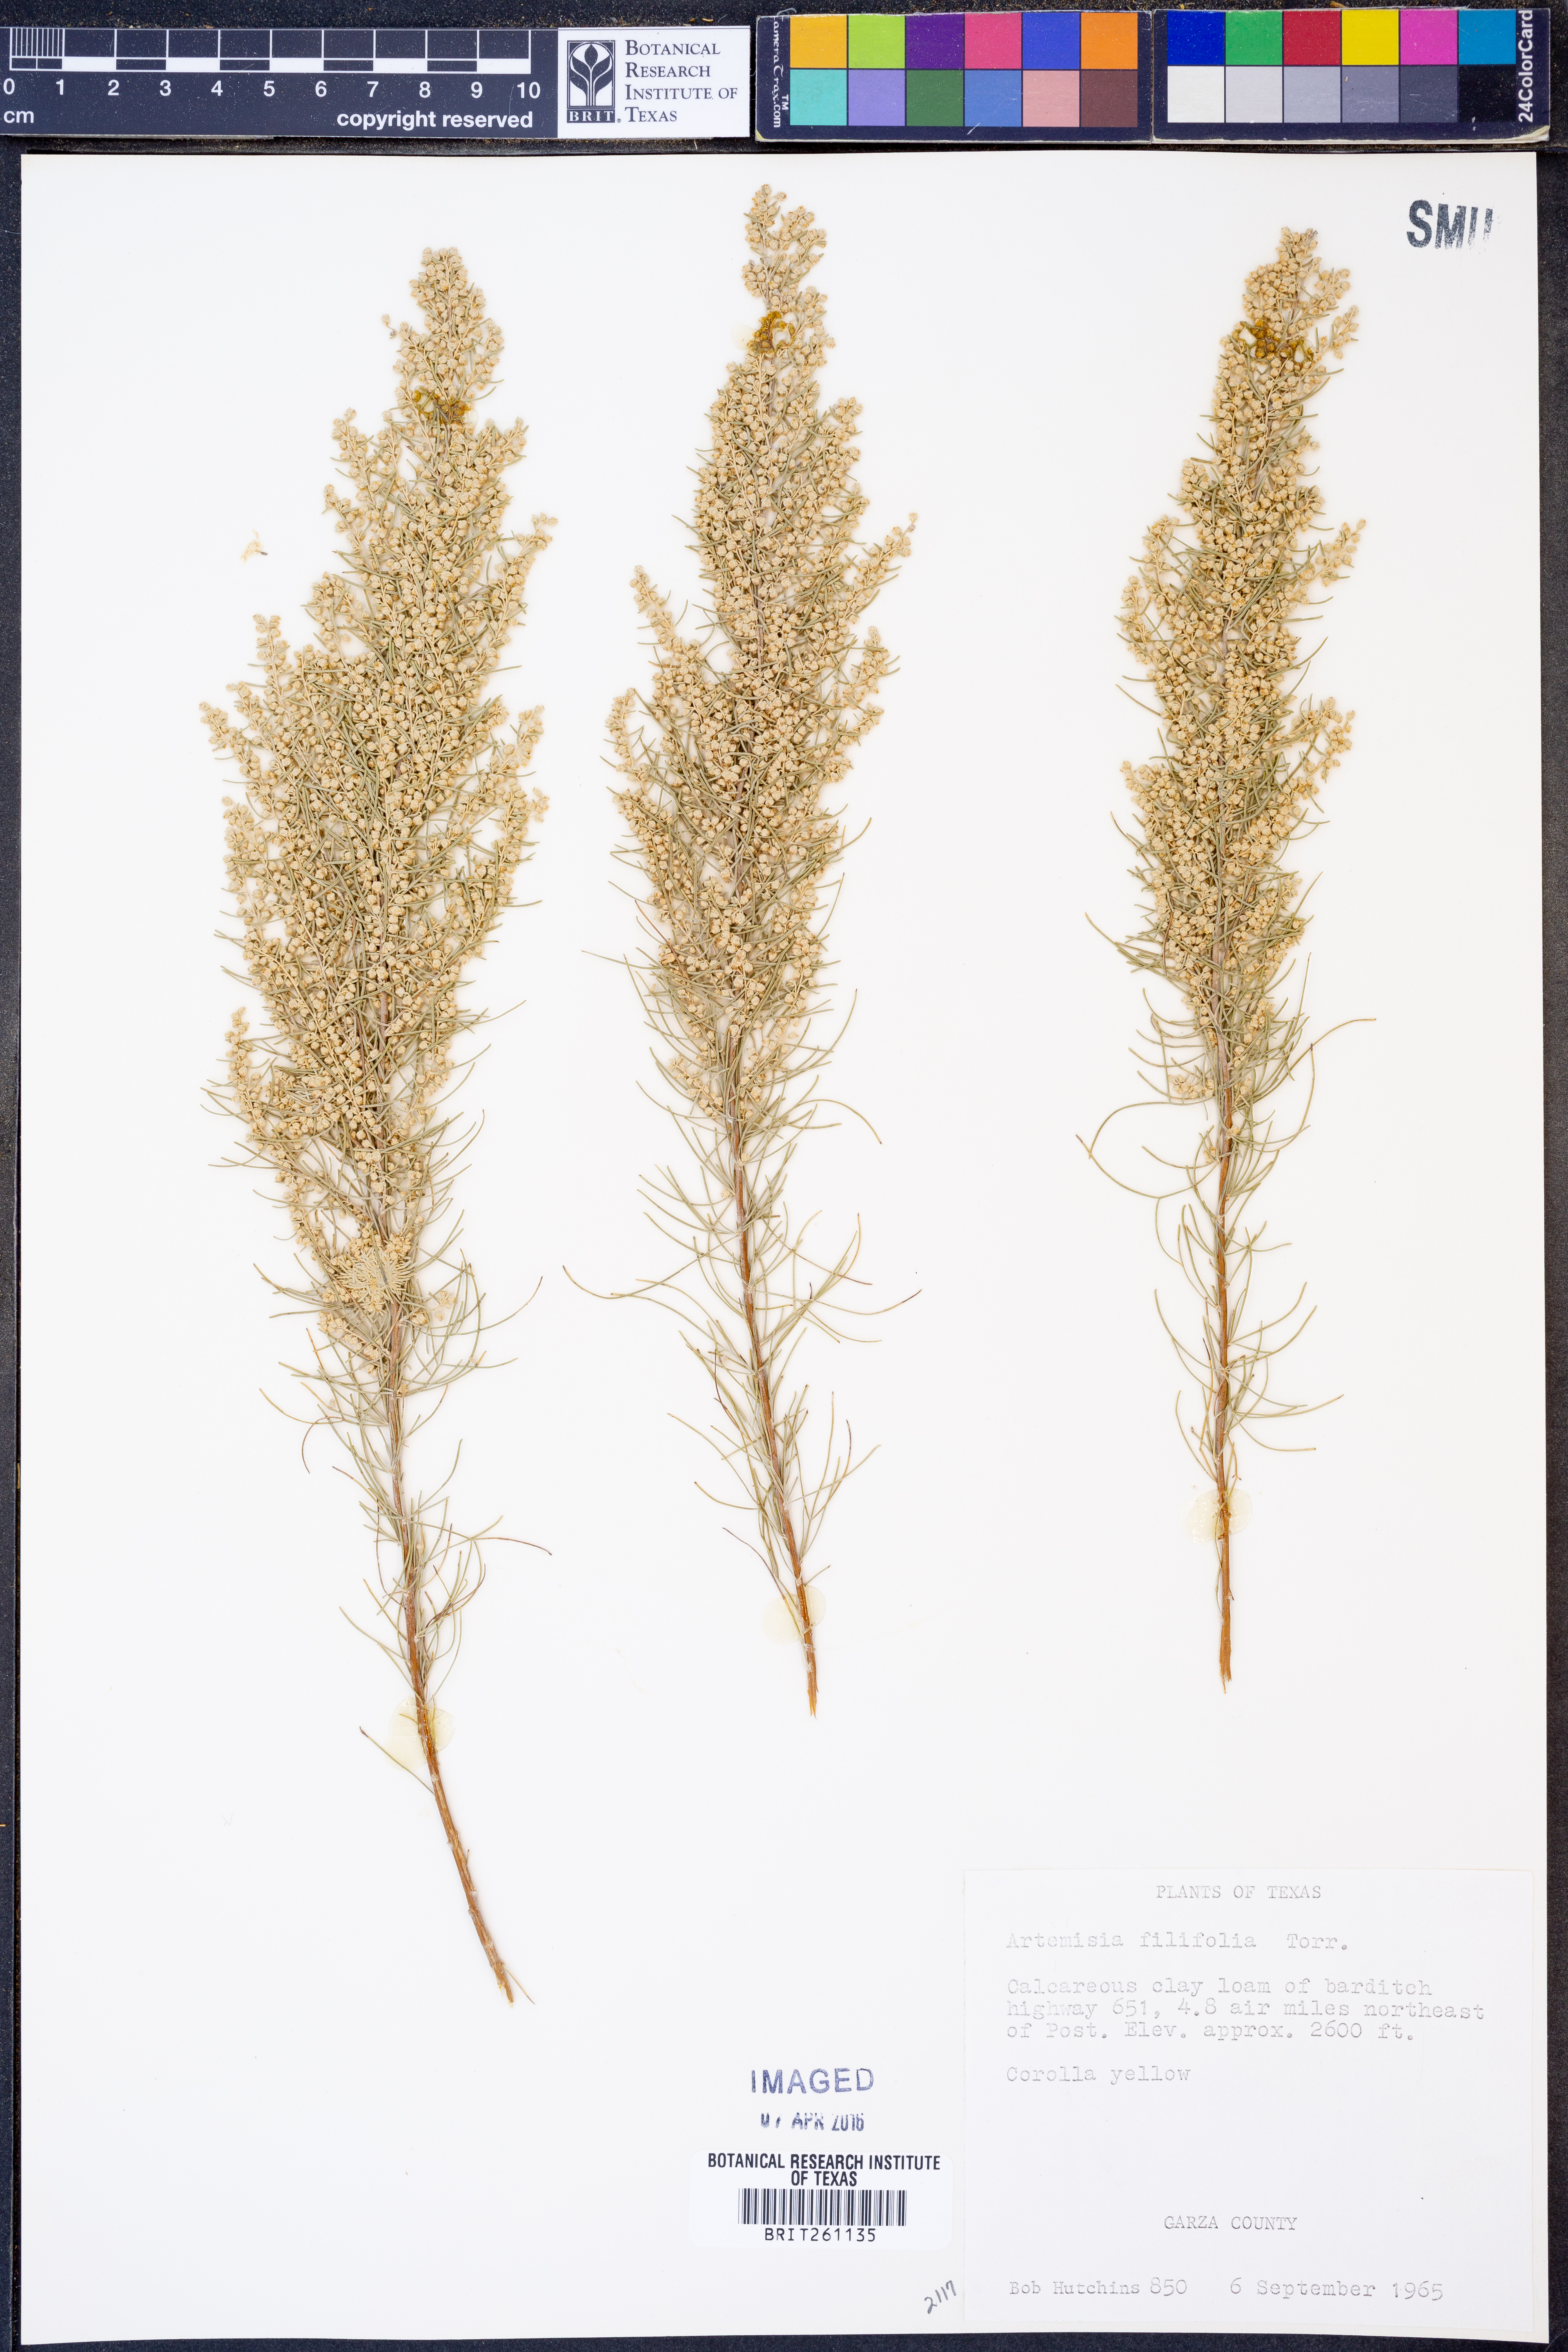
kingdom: Plantae
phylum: Tracheophyta
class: Magnoliopsida
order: Asterales
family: Asteraceae
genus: Artemisia
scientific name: Artemisia filifolia
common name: Sand-sage
